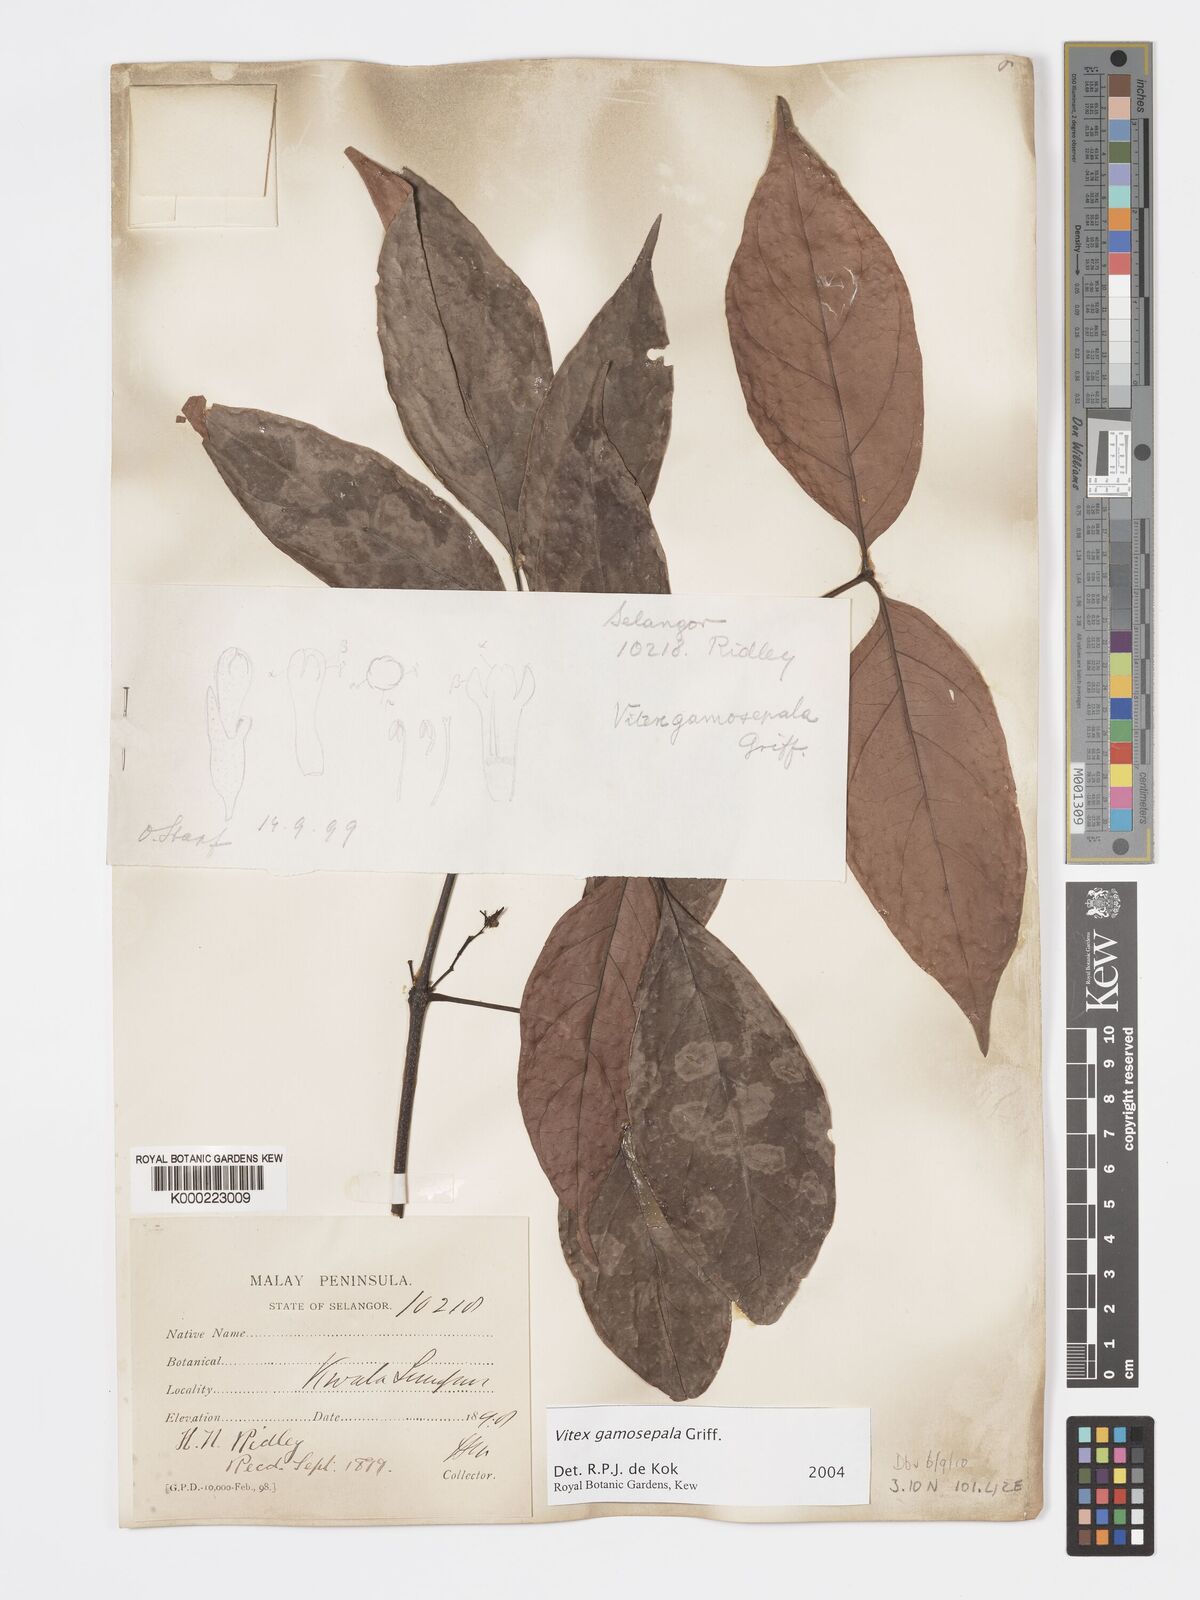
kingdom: Plantae
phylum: Tracheophyta
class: Magnoliopsida
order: Lamiales
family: Lamiaceae
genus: Vitex
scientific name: Vitex gamosepala
